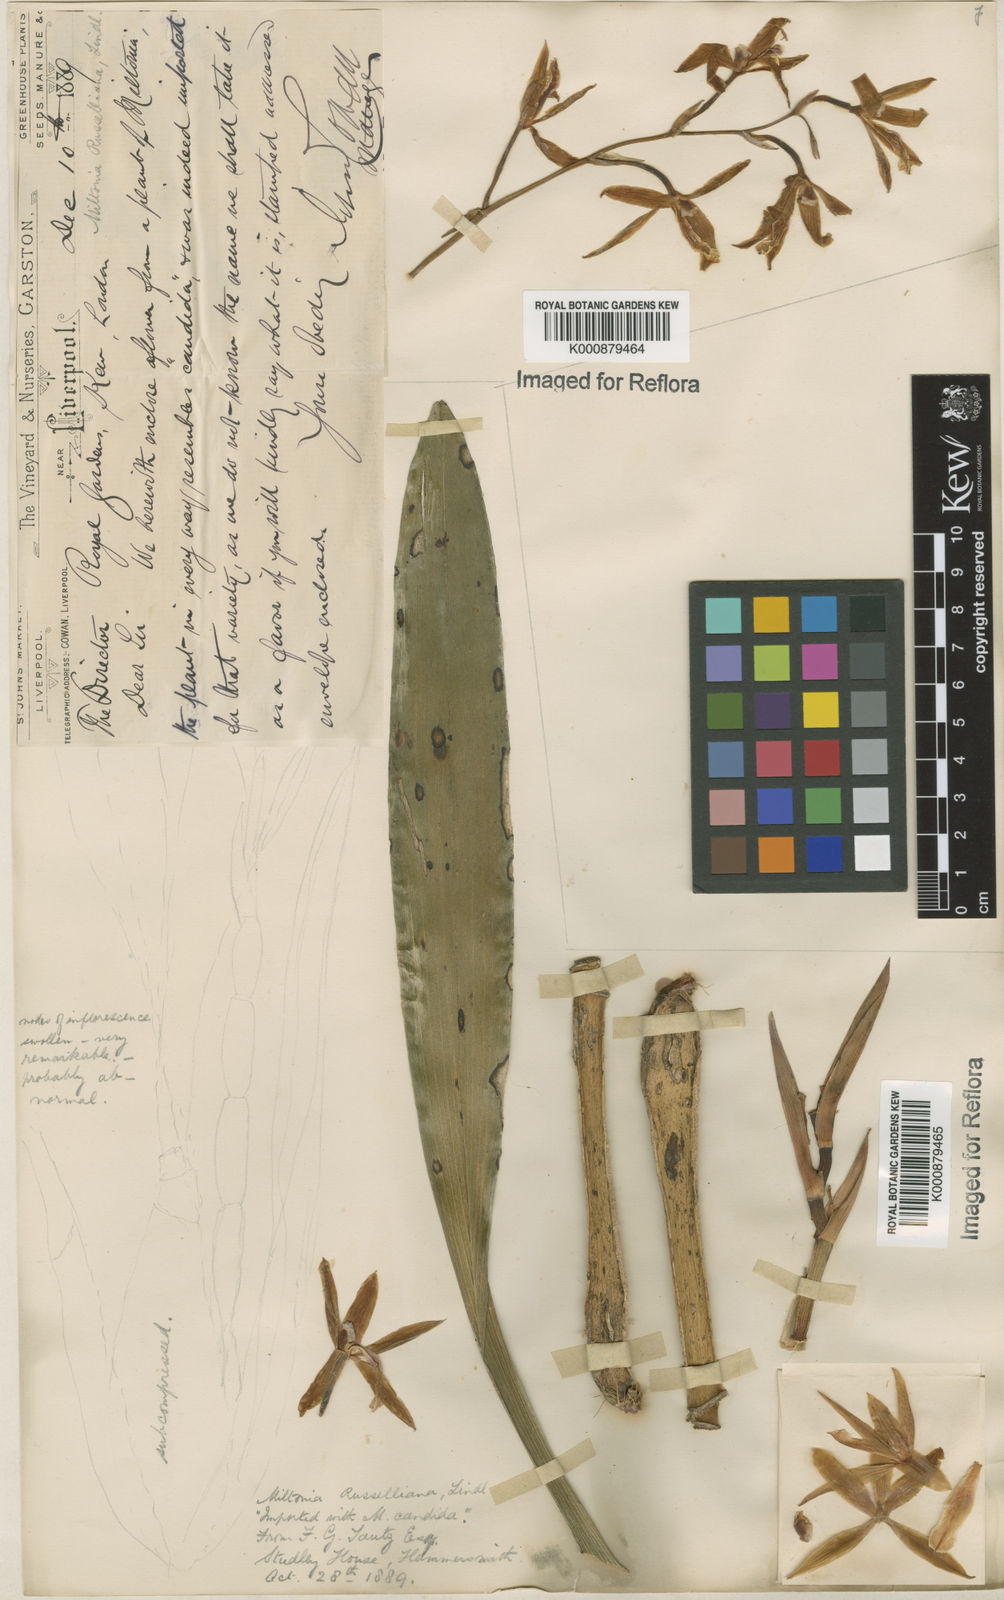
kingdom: Plantae
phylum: Tracheophyta
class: Liliopsida
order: Asparagales
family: Orchidaceae
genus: Miltonia
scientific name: Miltonia russelliana
